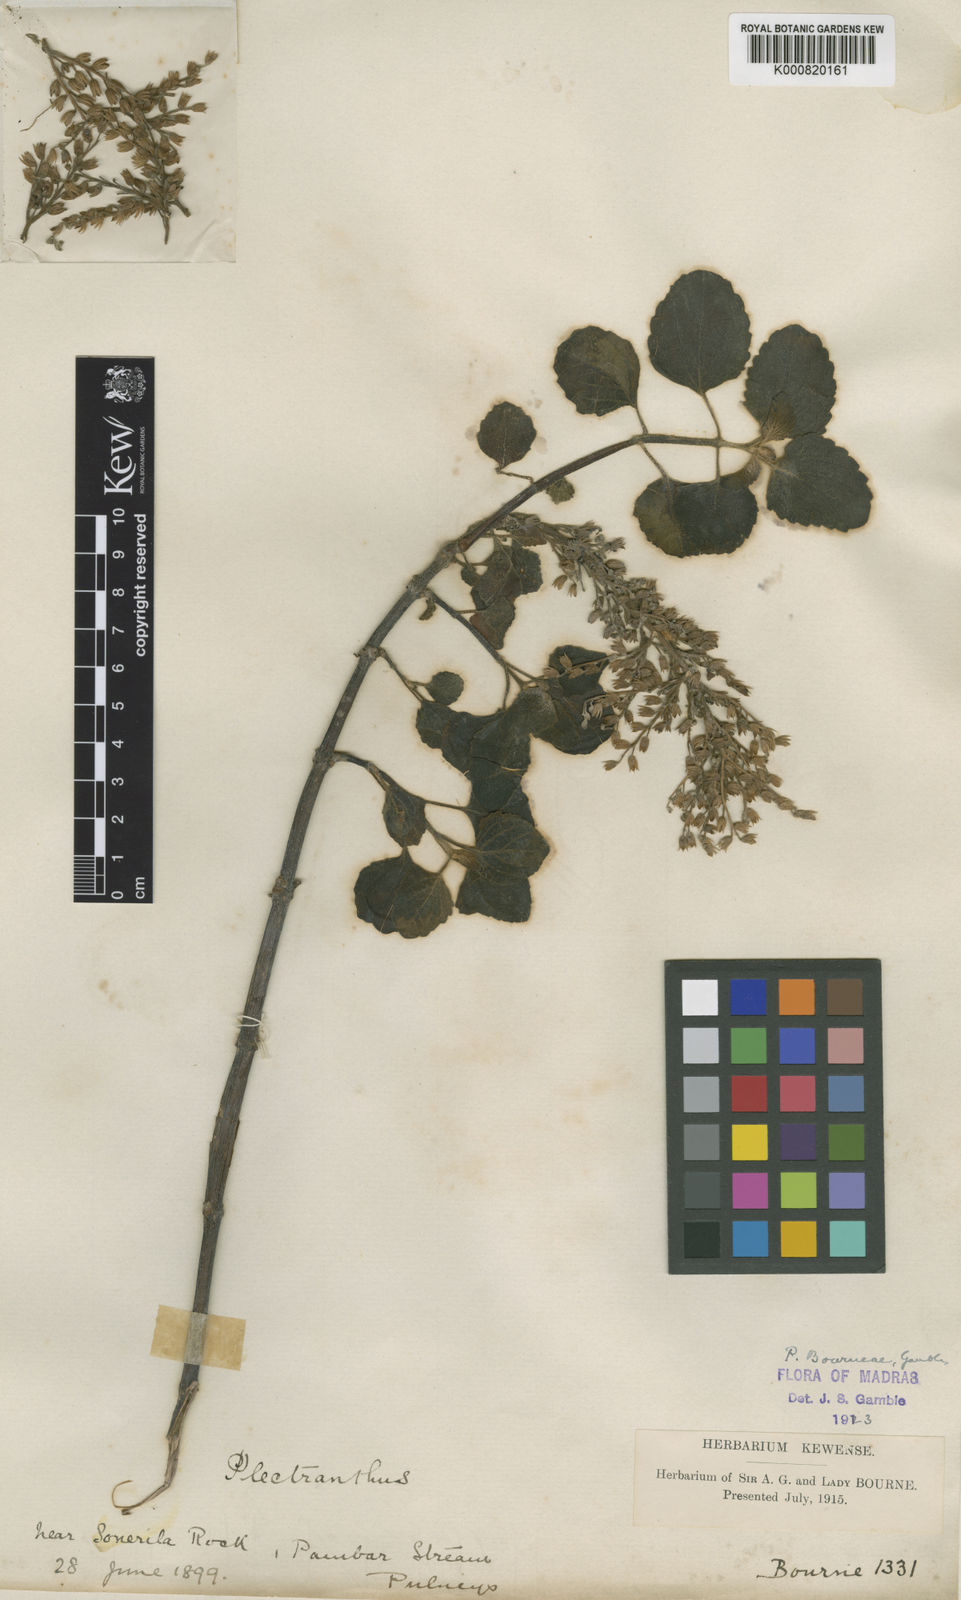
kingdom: Plantae
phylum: Tracheophyta
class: Magnoliopsida
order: Lamiales
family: Lamiaceae
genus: Coleus
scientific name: Coleus bourneae
